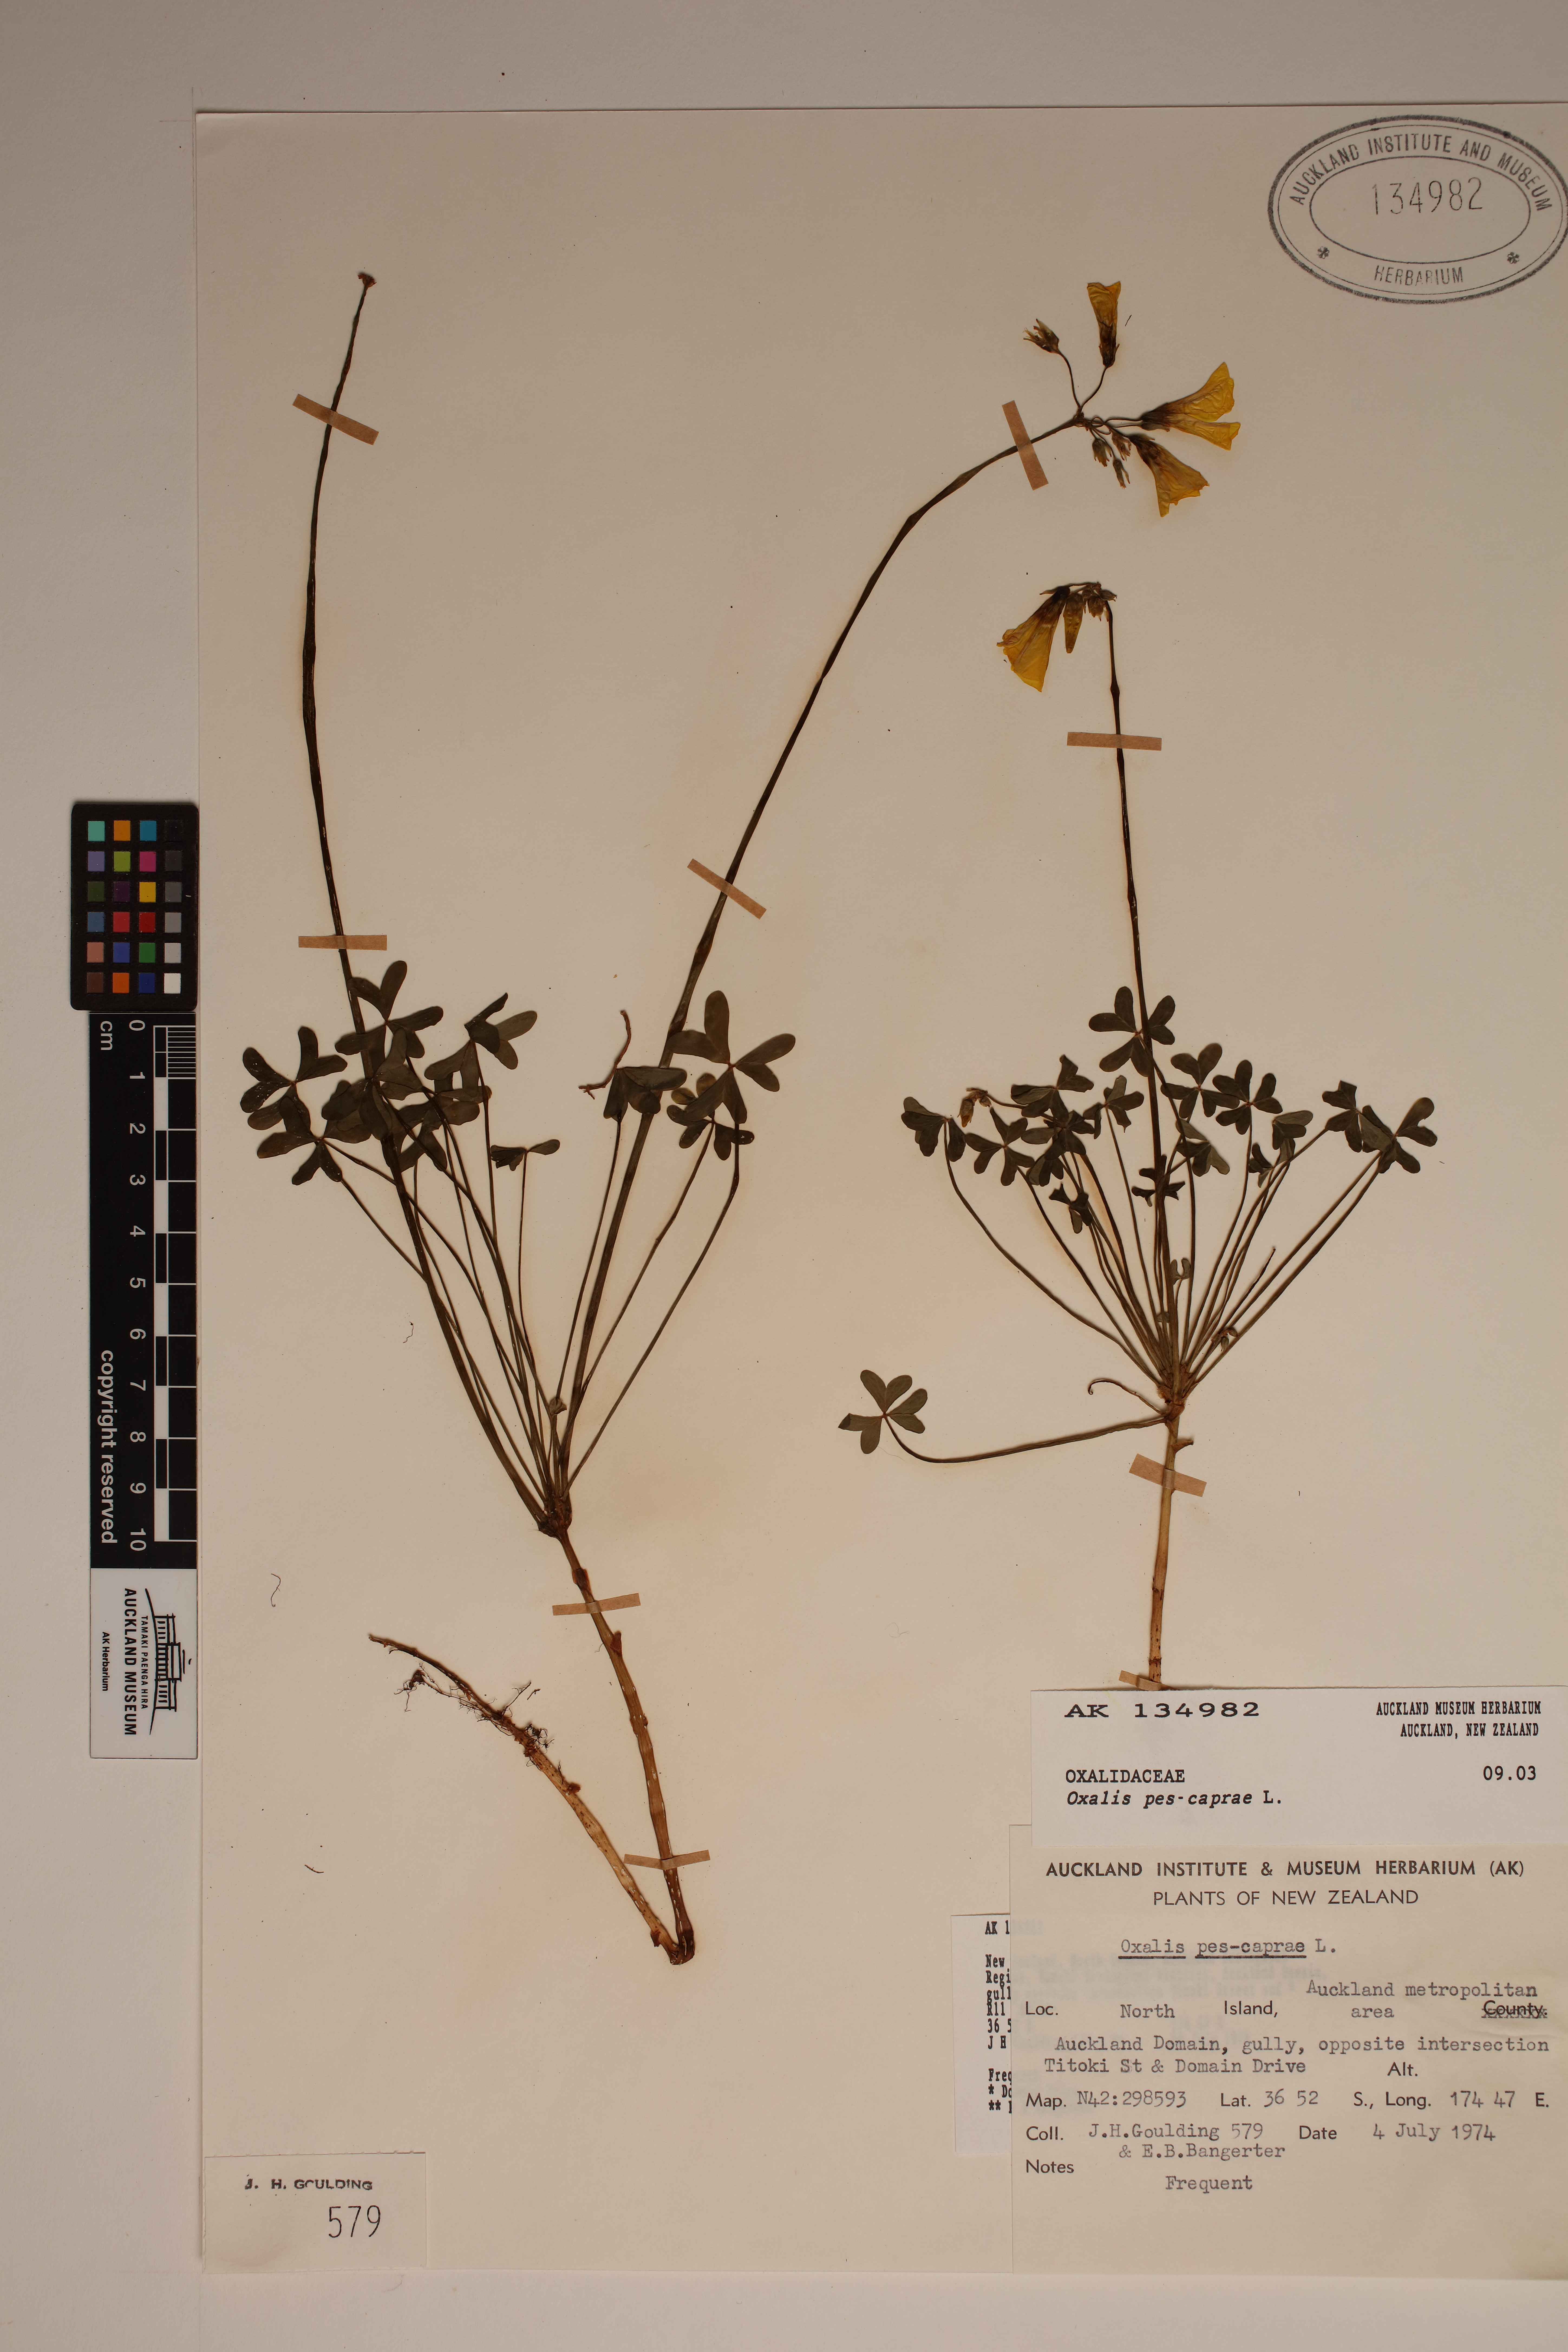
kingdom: Plantae
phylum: Tracheophyta
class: Magnoliopsida
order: Oxalidales
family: Oxalidaceae
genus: Oxalis
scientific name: Oxalis pes-caprae
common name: Bermuda-buttercup
